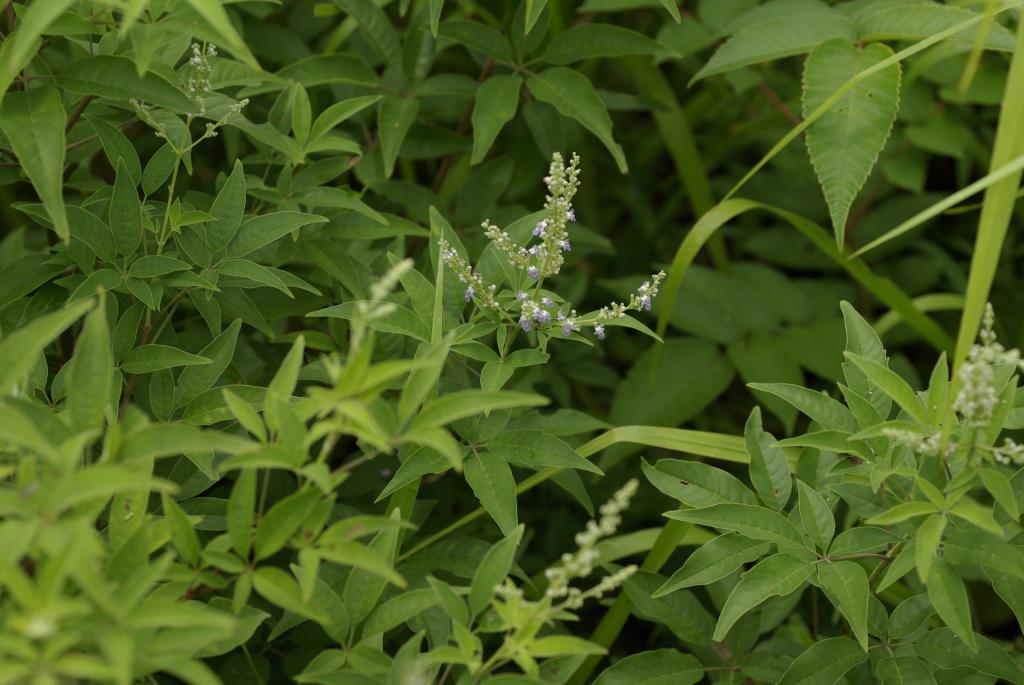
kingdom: Plantae
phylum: Tracheophyta
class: Magnoliopsida
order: Lamiales
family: Lamiaceae
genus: Vitex
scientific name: Vitex negundo
